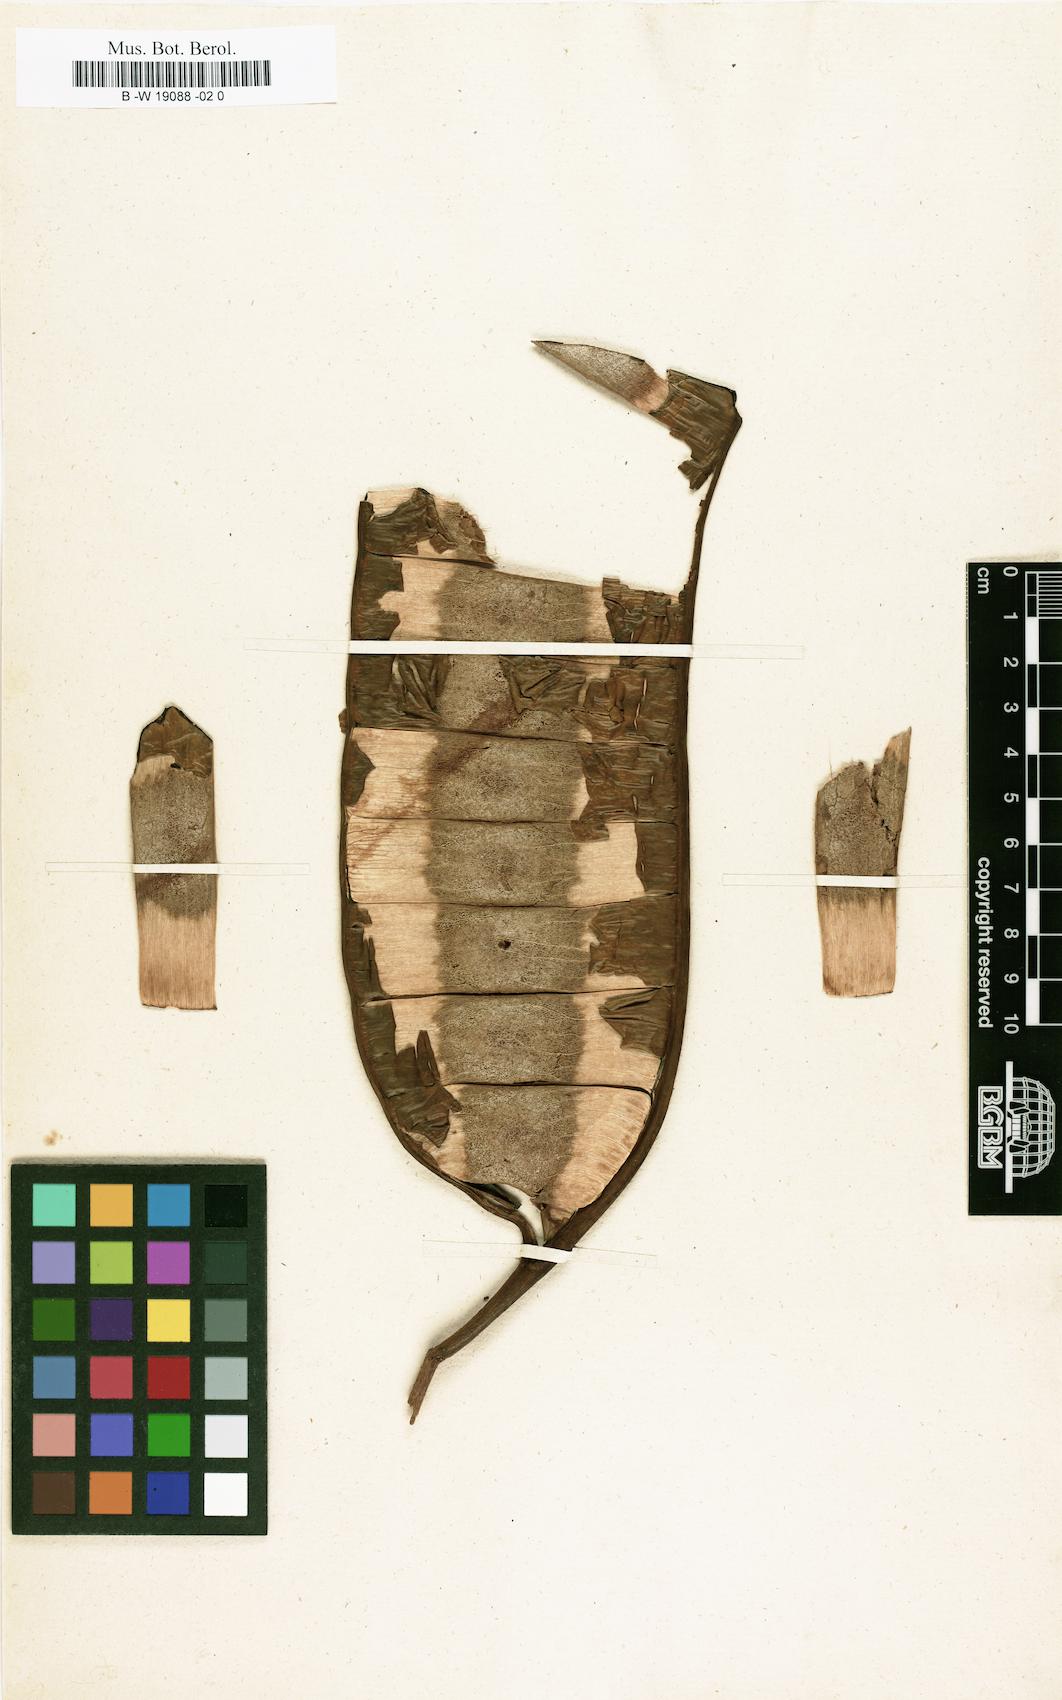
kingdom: Plantae
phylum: Tracheophyta
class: Magnoliopsida
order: Fabales
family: Fabaceae
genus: Entada
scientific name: Entada polystachya
